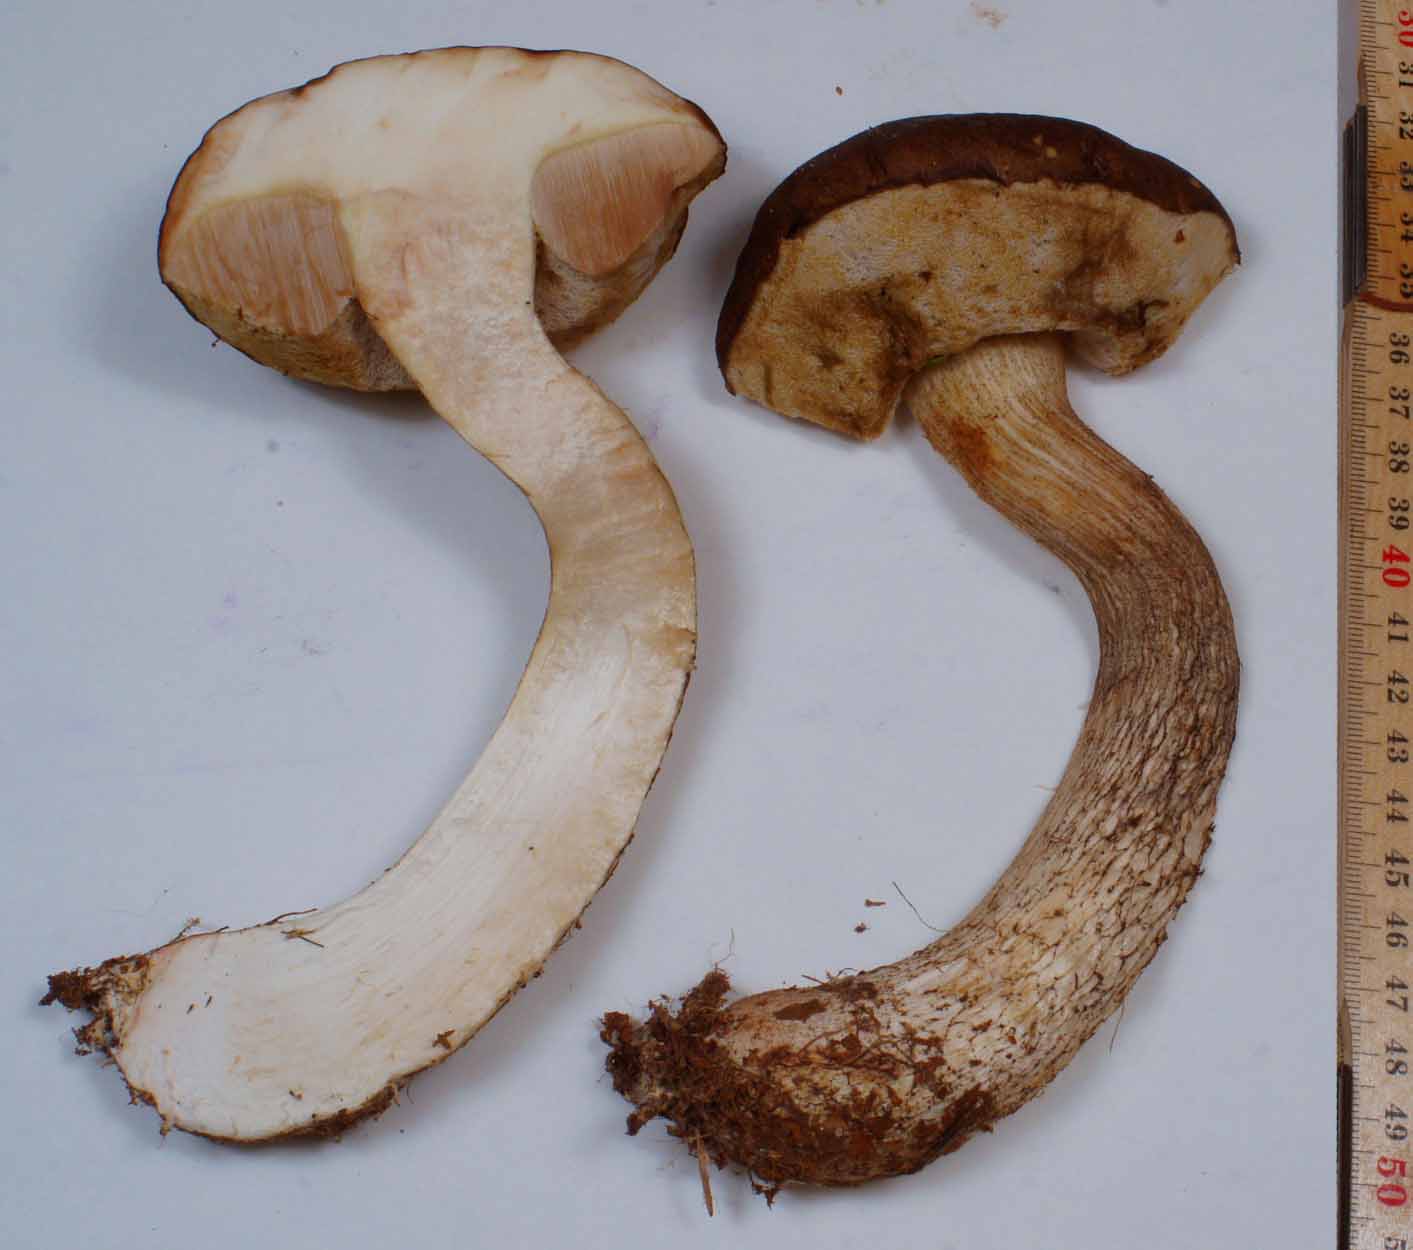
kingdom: Fungi
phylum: Basidiomycota
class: Agaricomycetes
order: Boletales
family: Boletaceae
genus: Leccinum
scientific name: Leccinum scabrum
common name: brun skælrørhat
